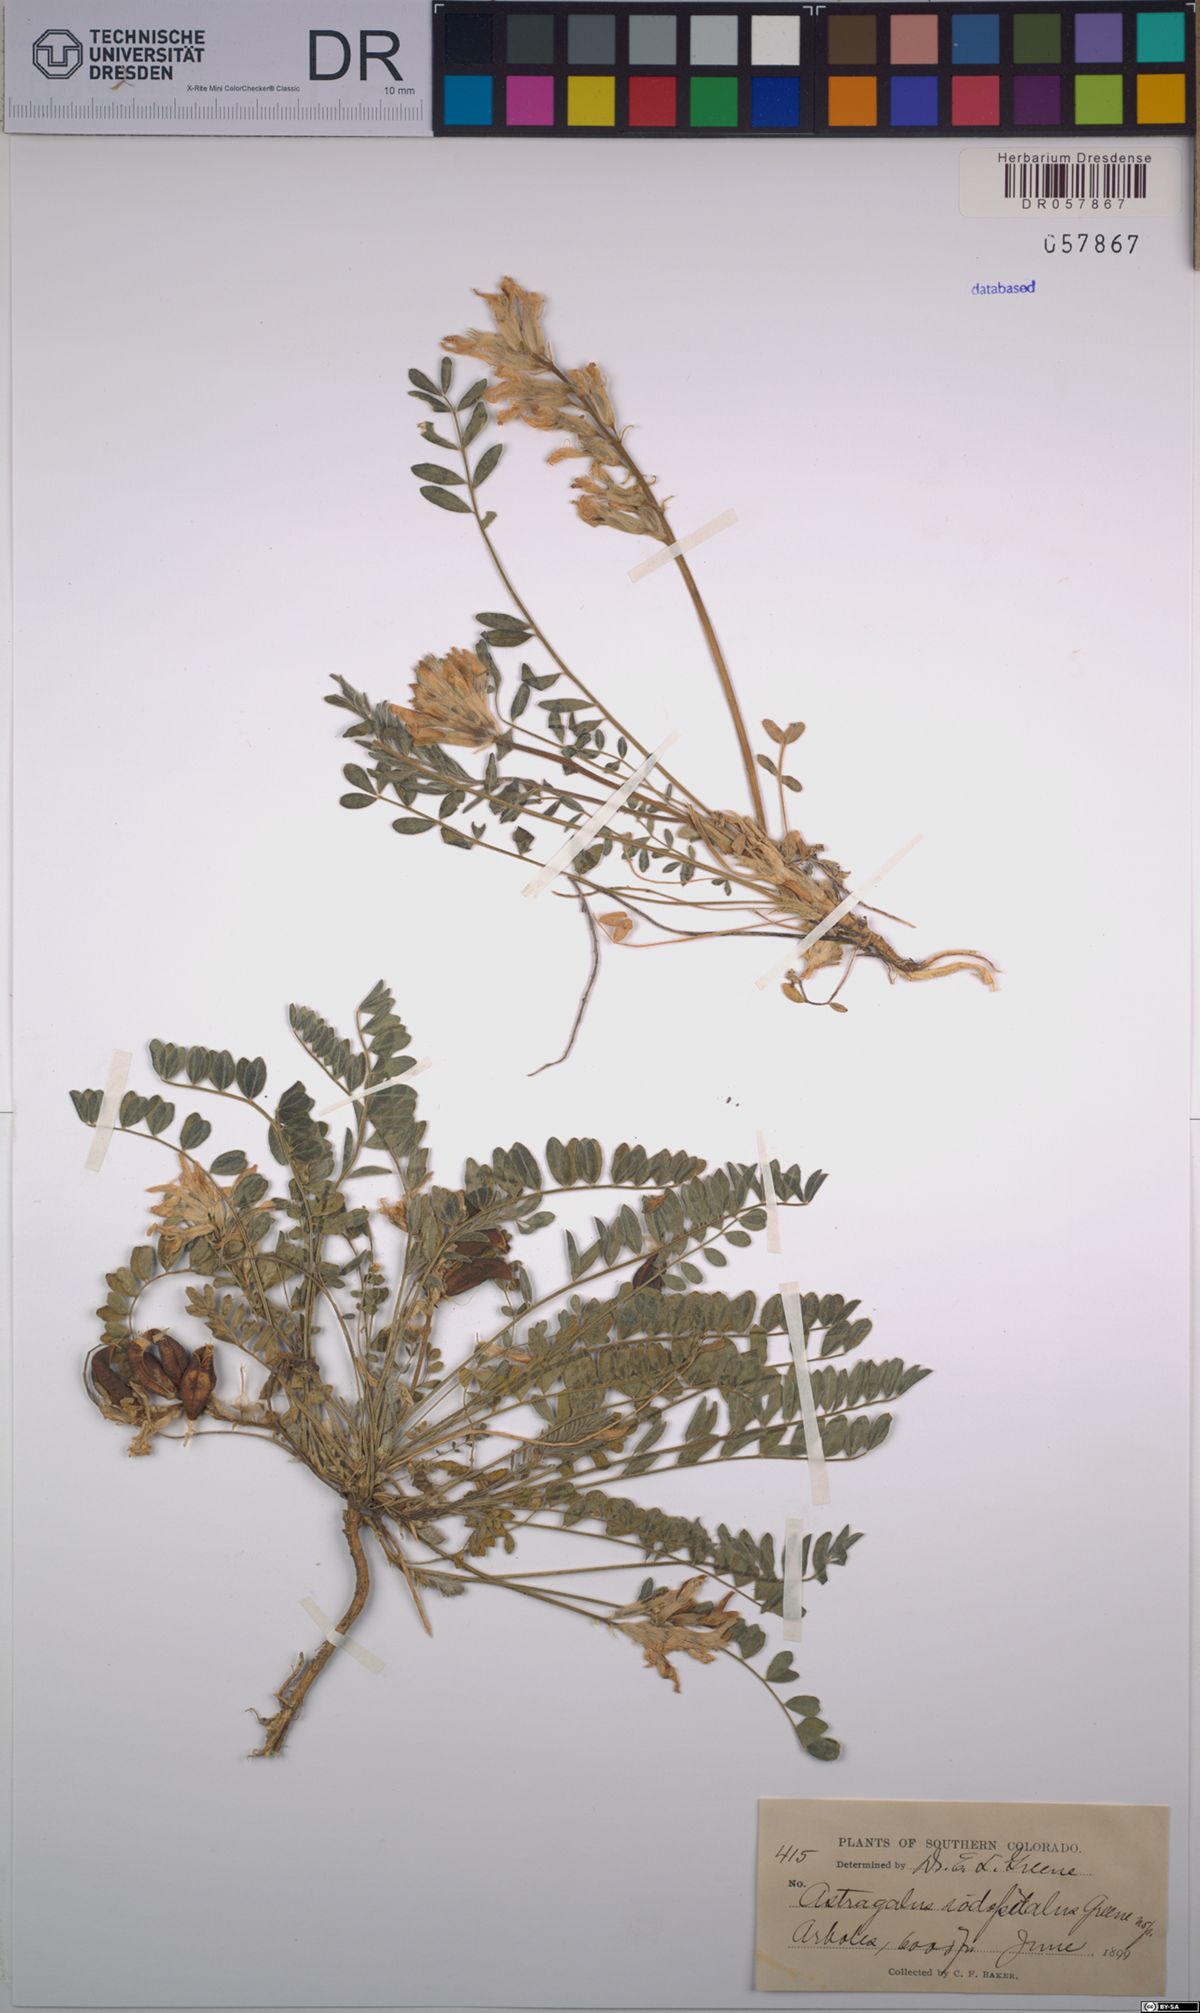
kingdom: Plantae
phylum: Tracheophyta
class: Magnoliopsida
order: Fabales
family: Fabaceae
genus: Astragalus
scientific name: Astragalus iodopetalus
